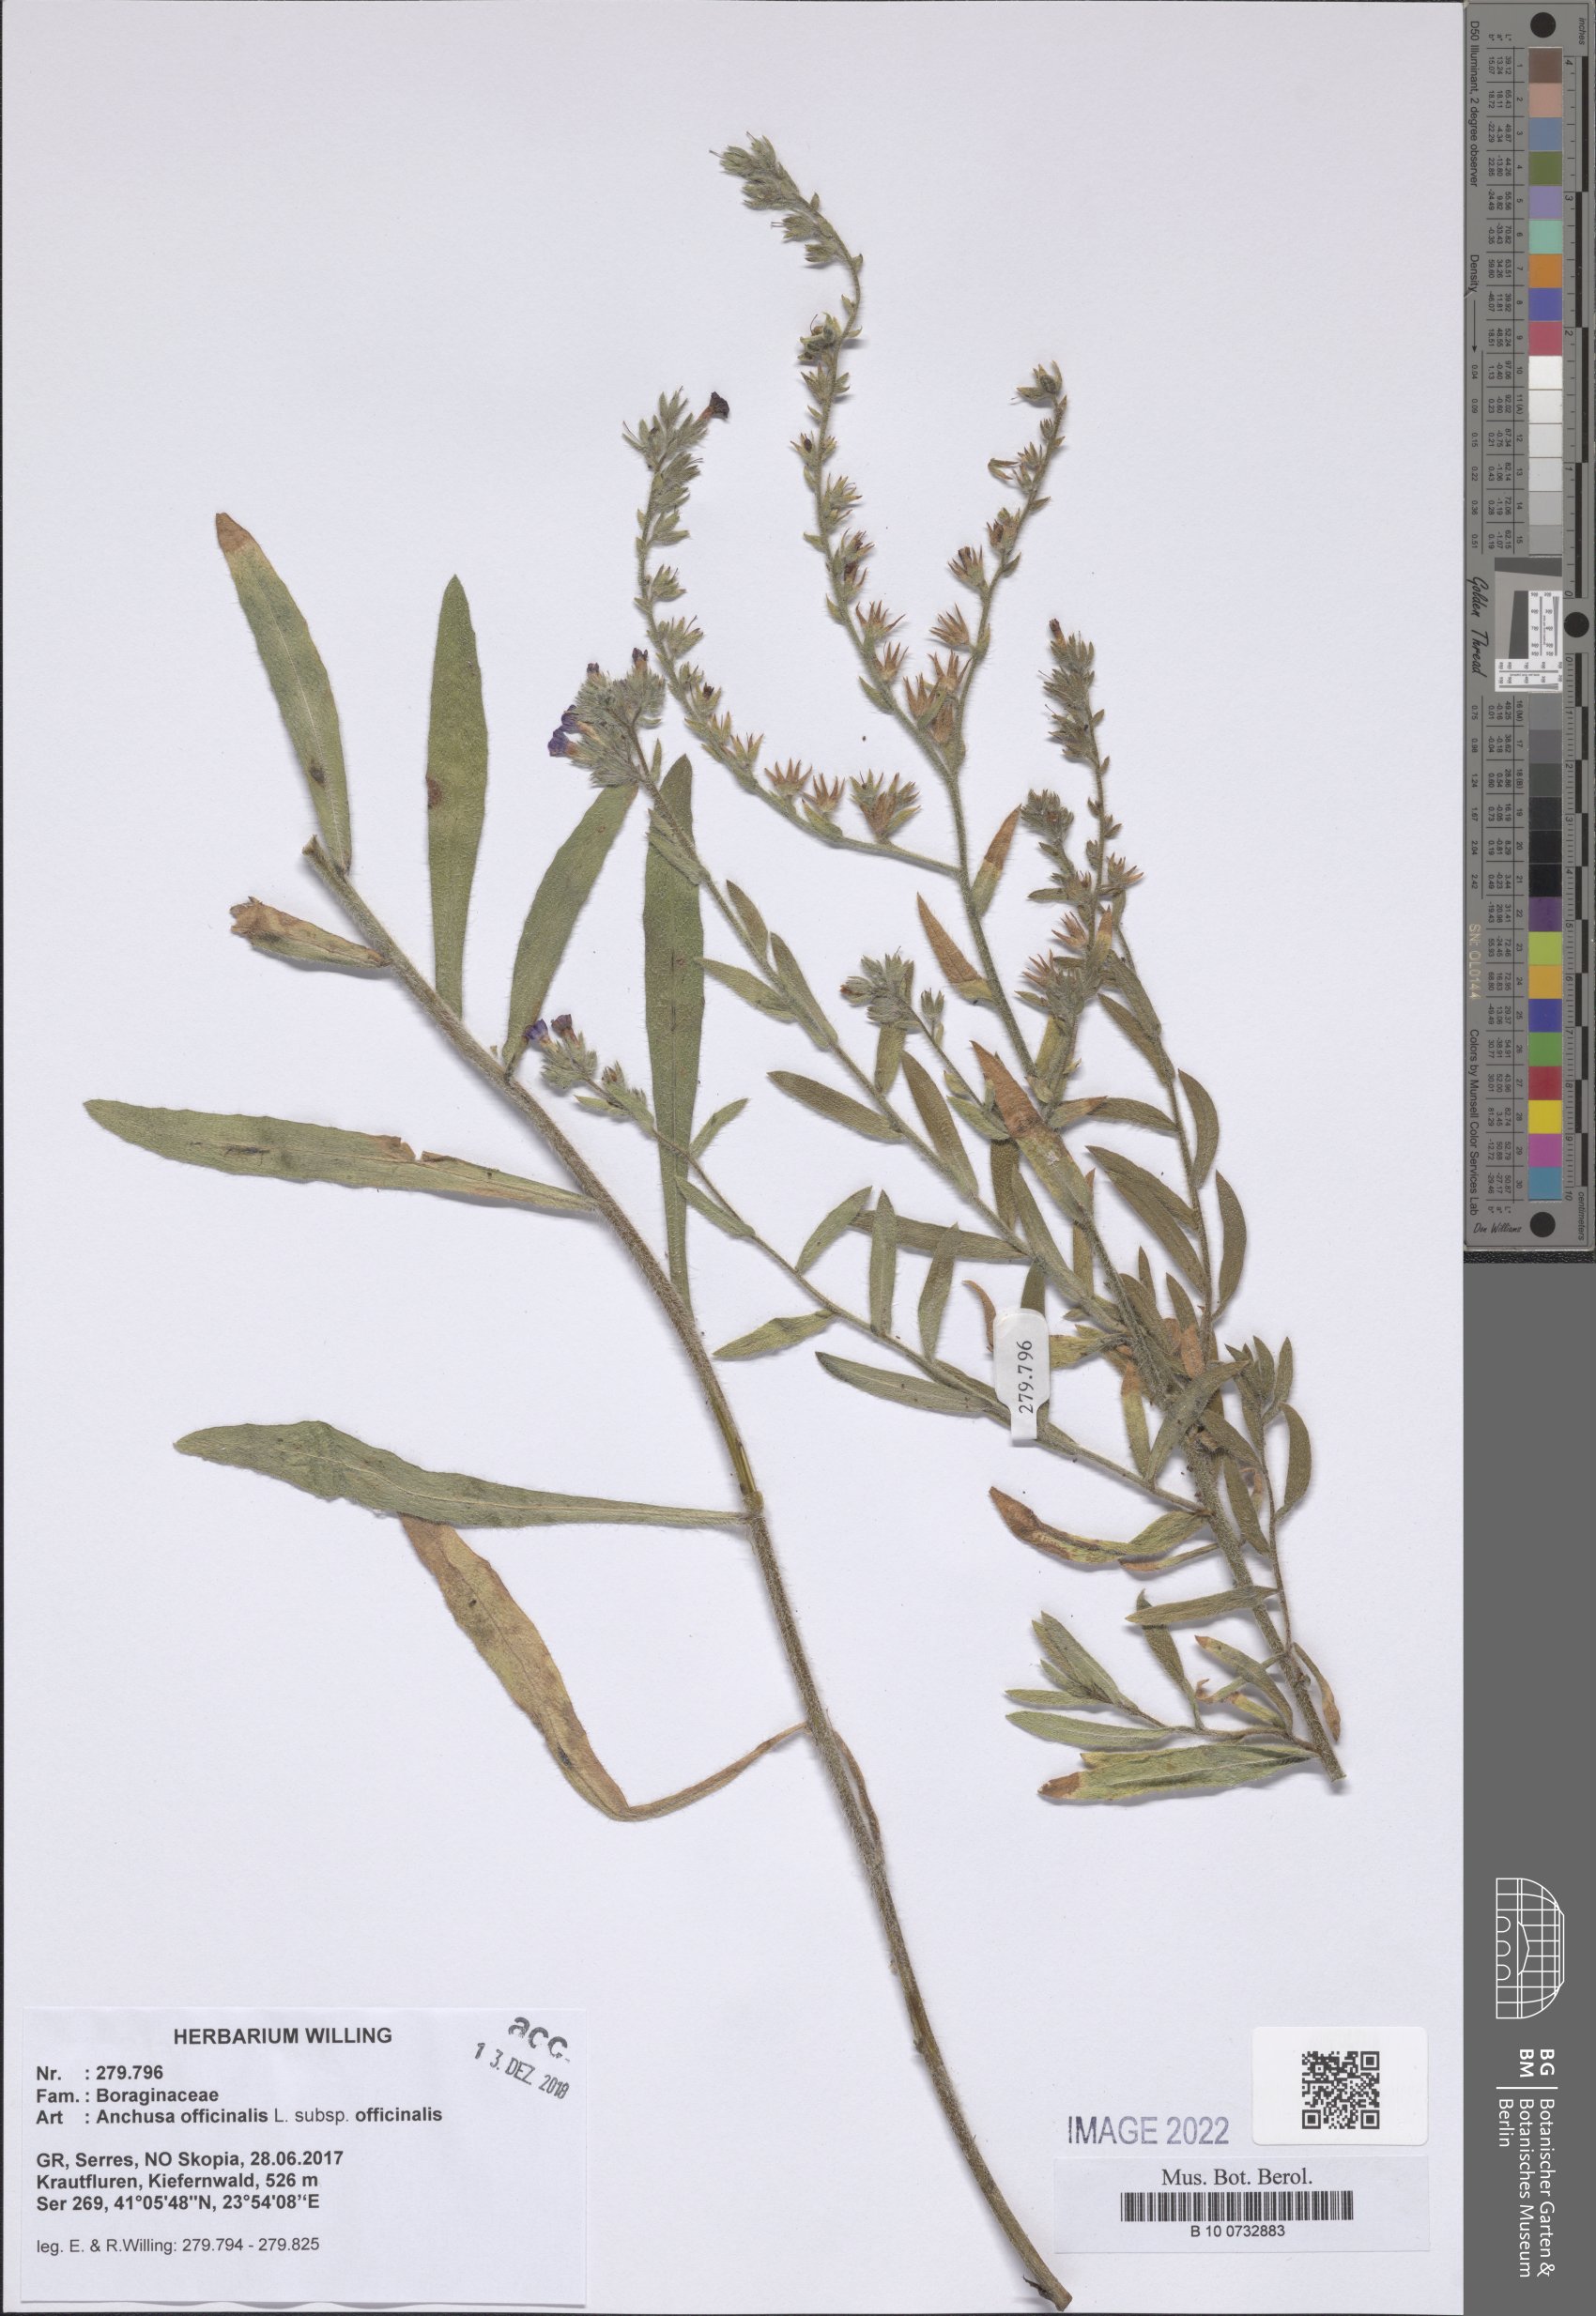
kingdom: Plantae
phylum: Tracheophyta
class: Magnoliopsida
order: Boraginales
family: Boraginaceae
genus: Anchusa
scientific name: Anchusa officinalis
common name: Alkanet
